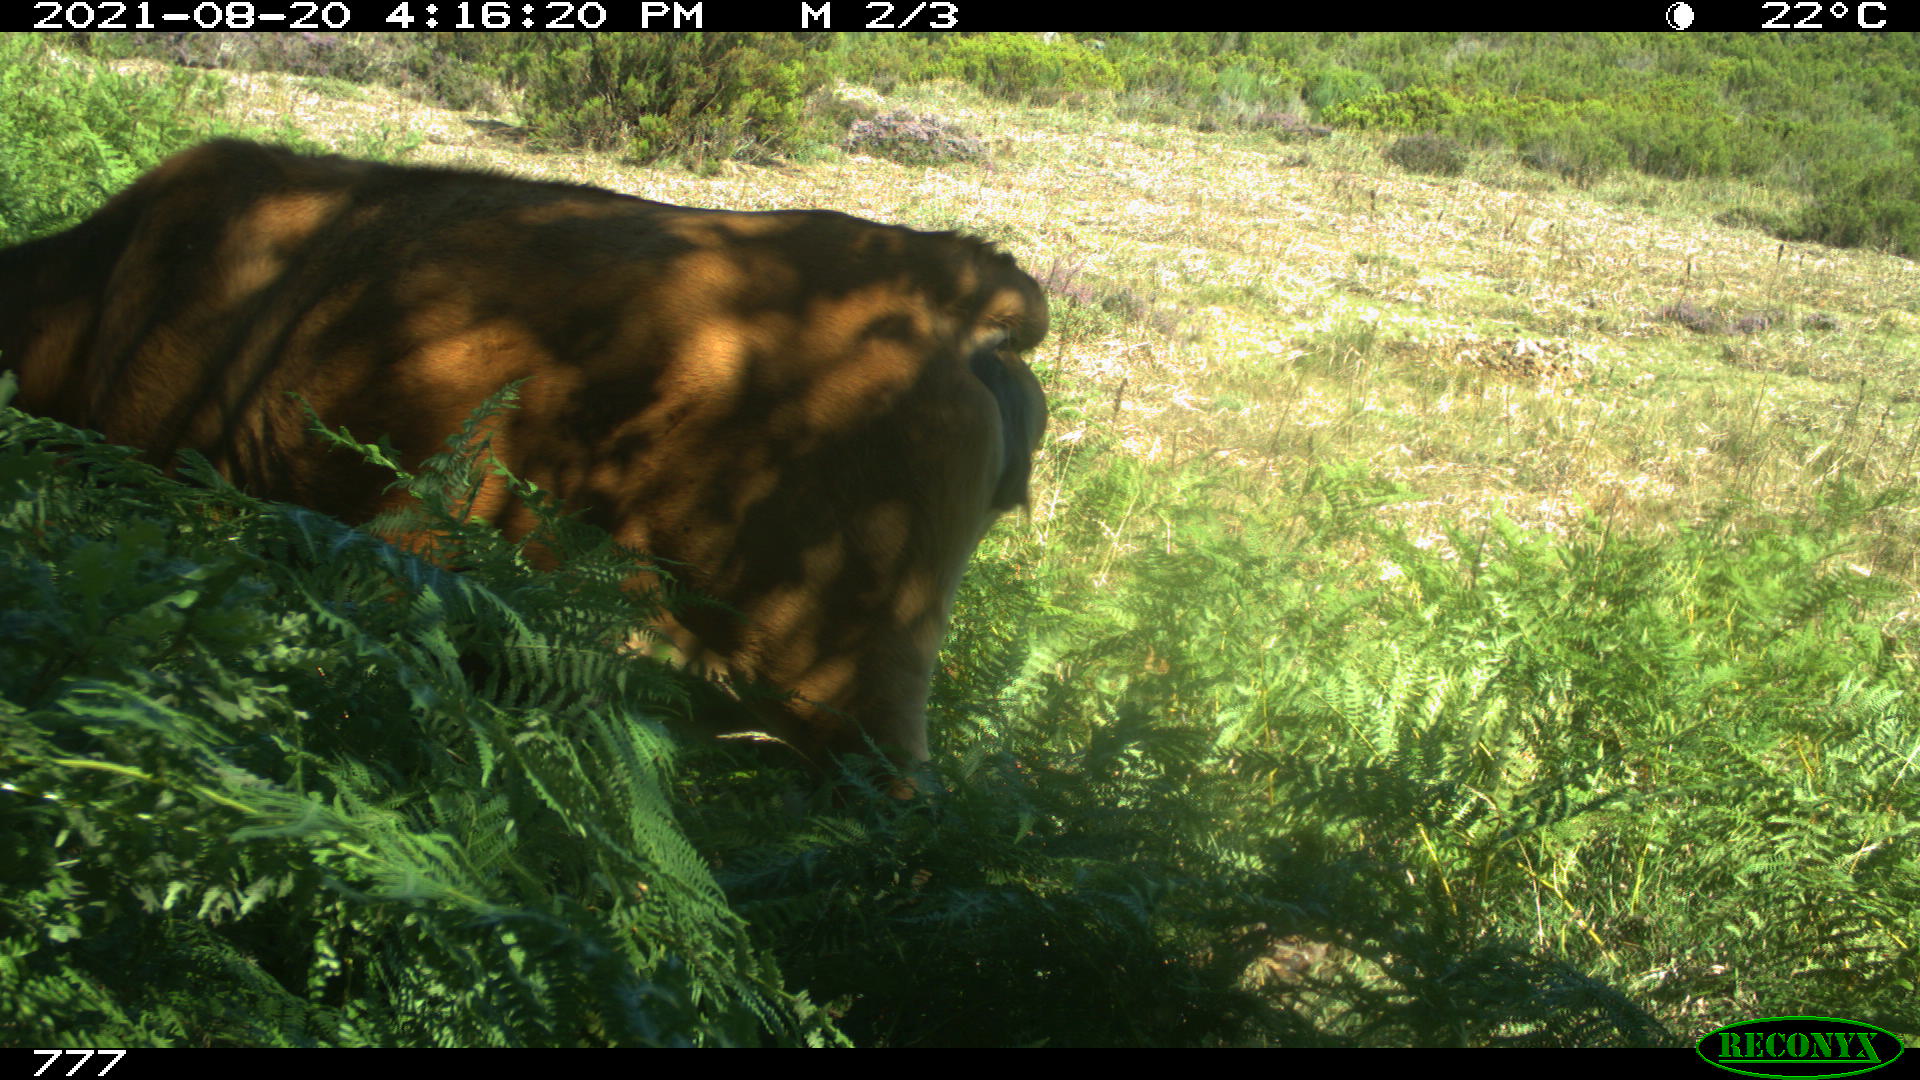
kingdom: Animalia
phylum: Chordata
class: Mammalia
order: Artiodactyla
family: Bovidae
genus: Bos
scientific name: Bos taurus
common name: Domesticated cattle
